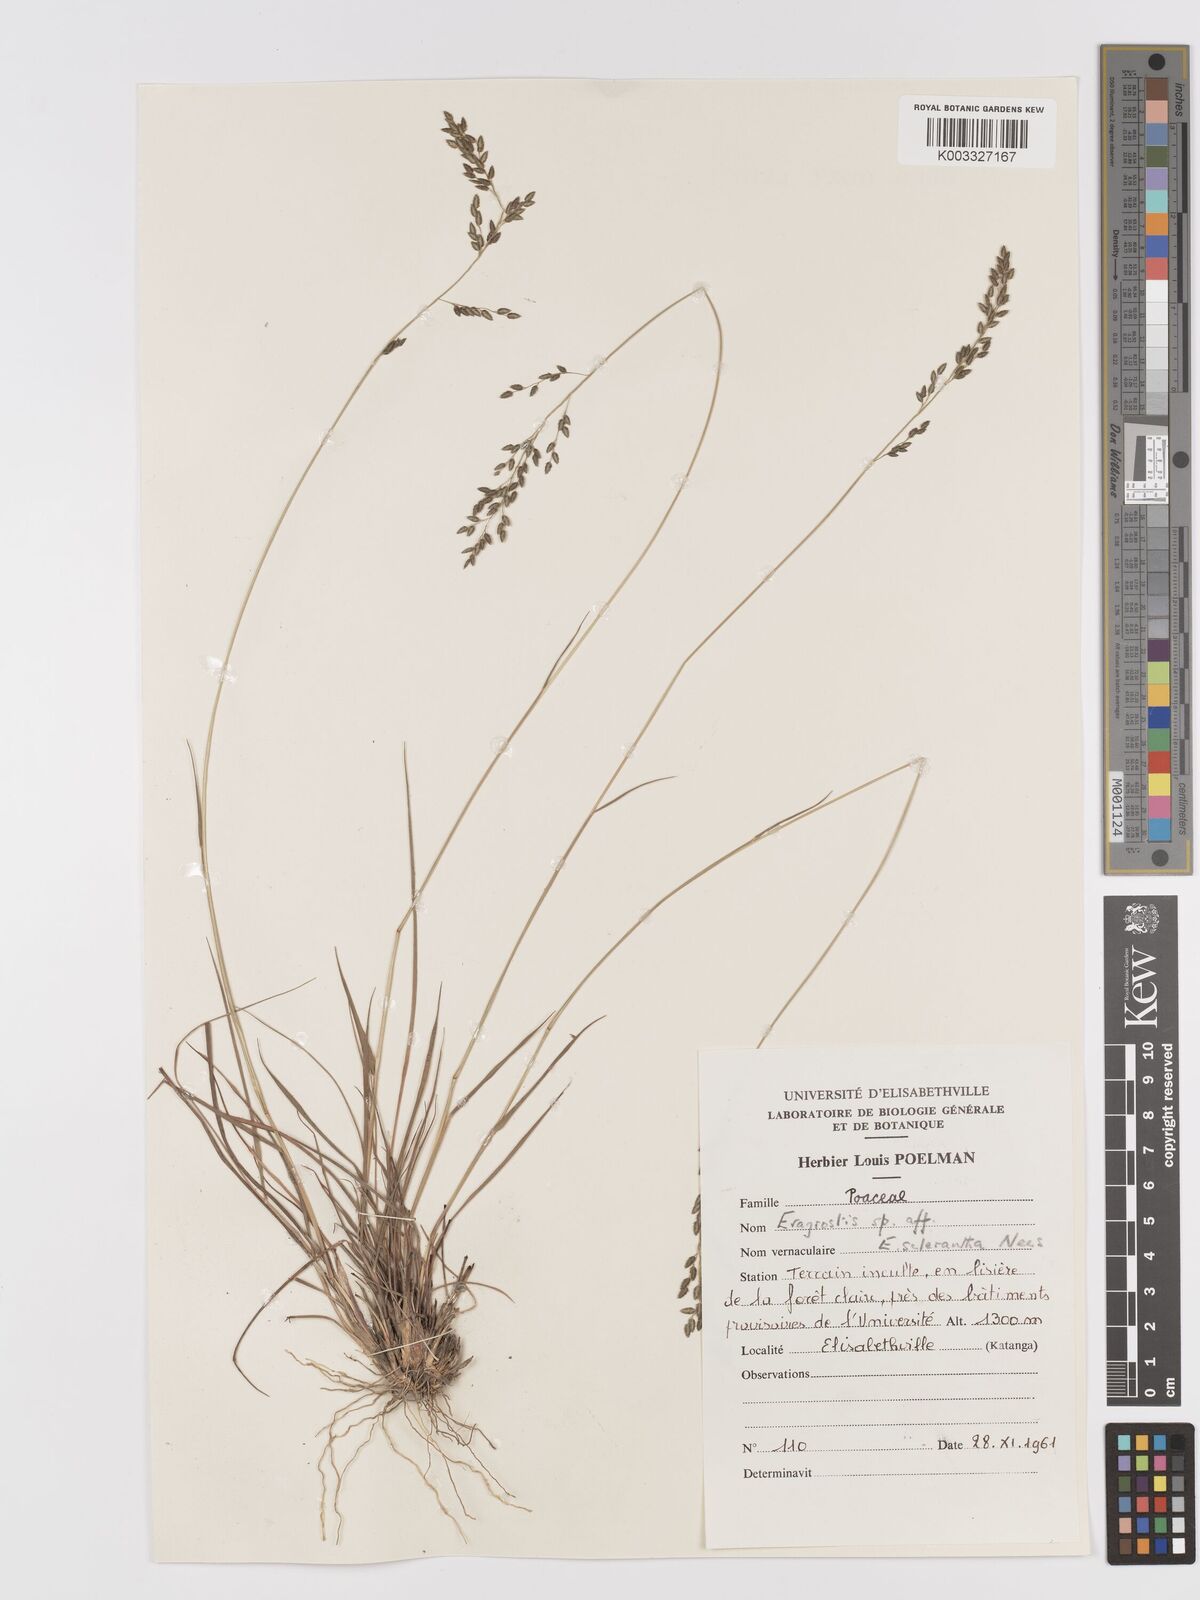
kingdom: Plantae
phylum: Tracheophyta
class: Liliopsida
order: Poales
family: Poaceae
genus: Eragrostis
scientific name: Eragrostis racemosa
